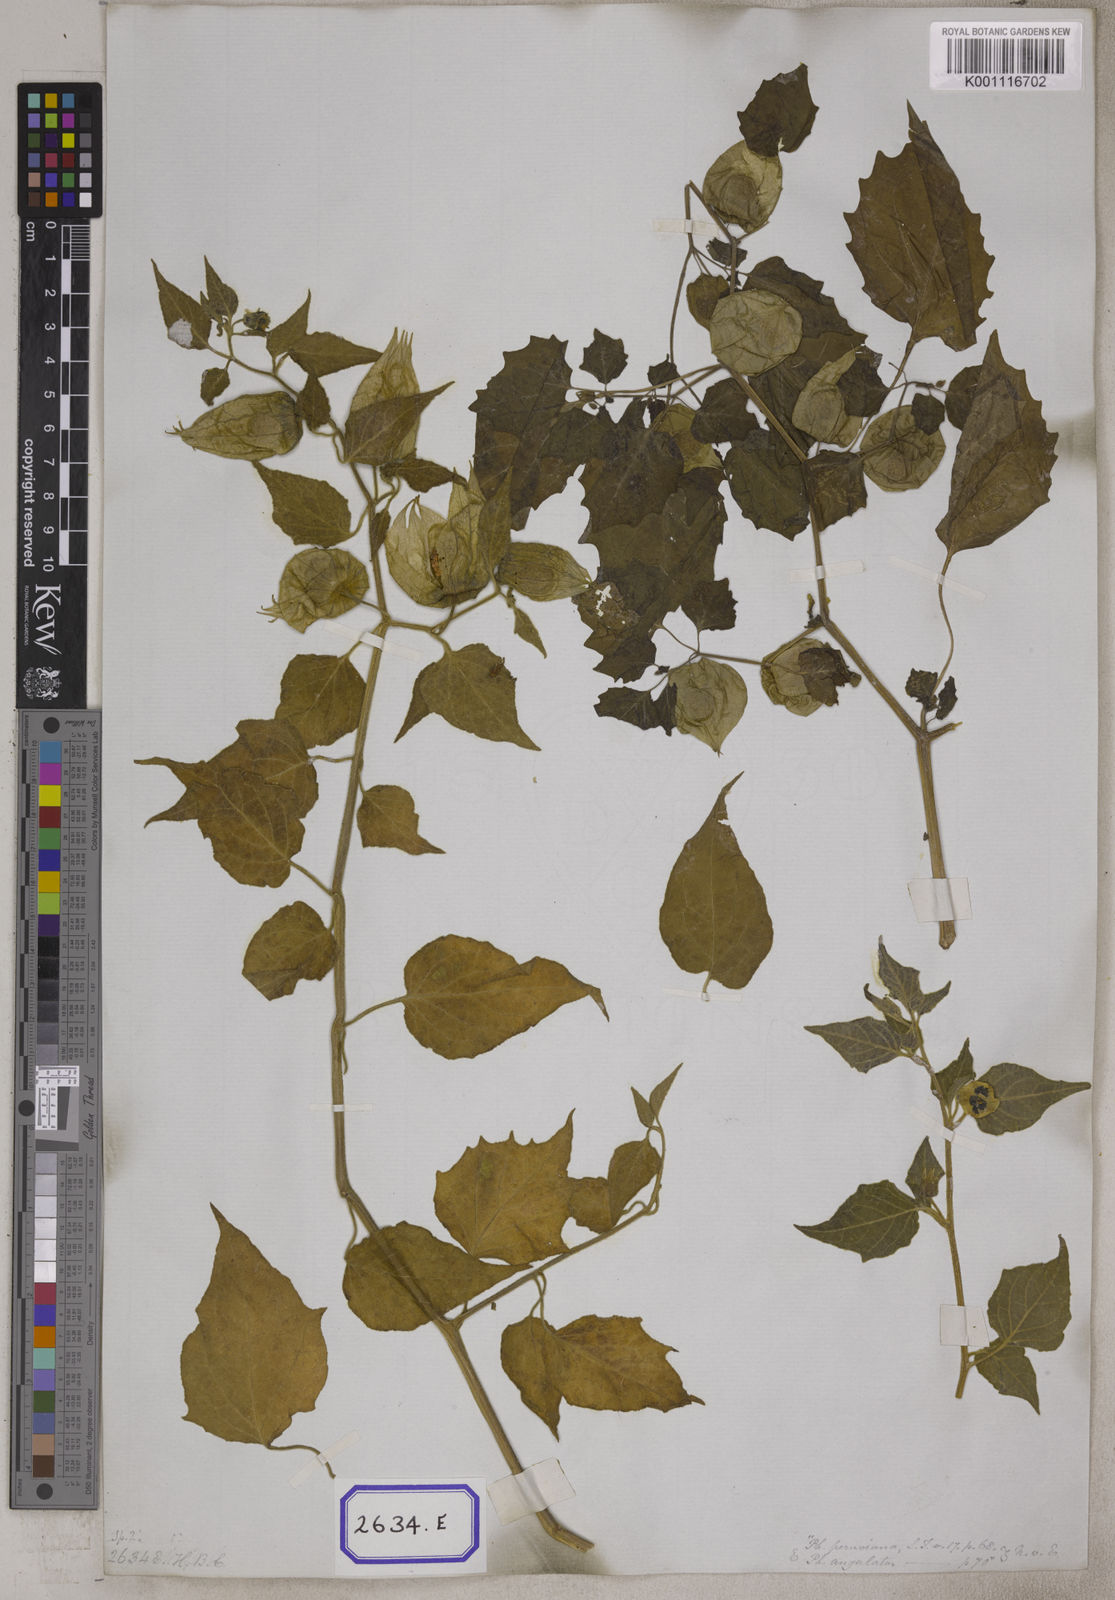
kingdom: Plantae
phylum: Tracheophyta
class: Magnoliopsida
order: Solanales
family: Solanaceae
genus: Physalis
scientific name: Physalis peruviana
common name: Cape-gooseberry
